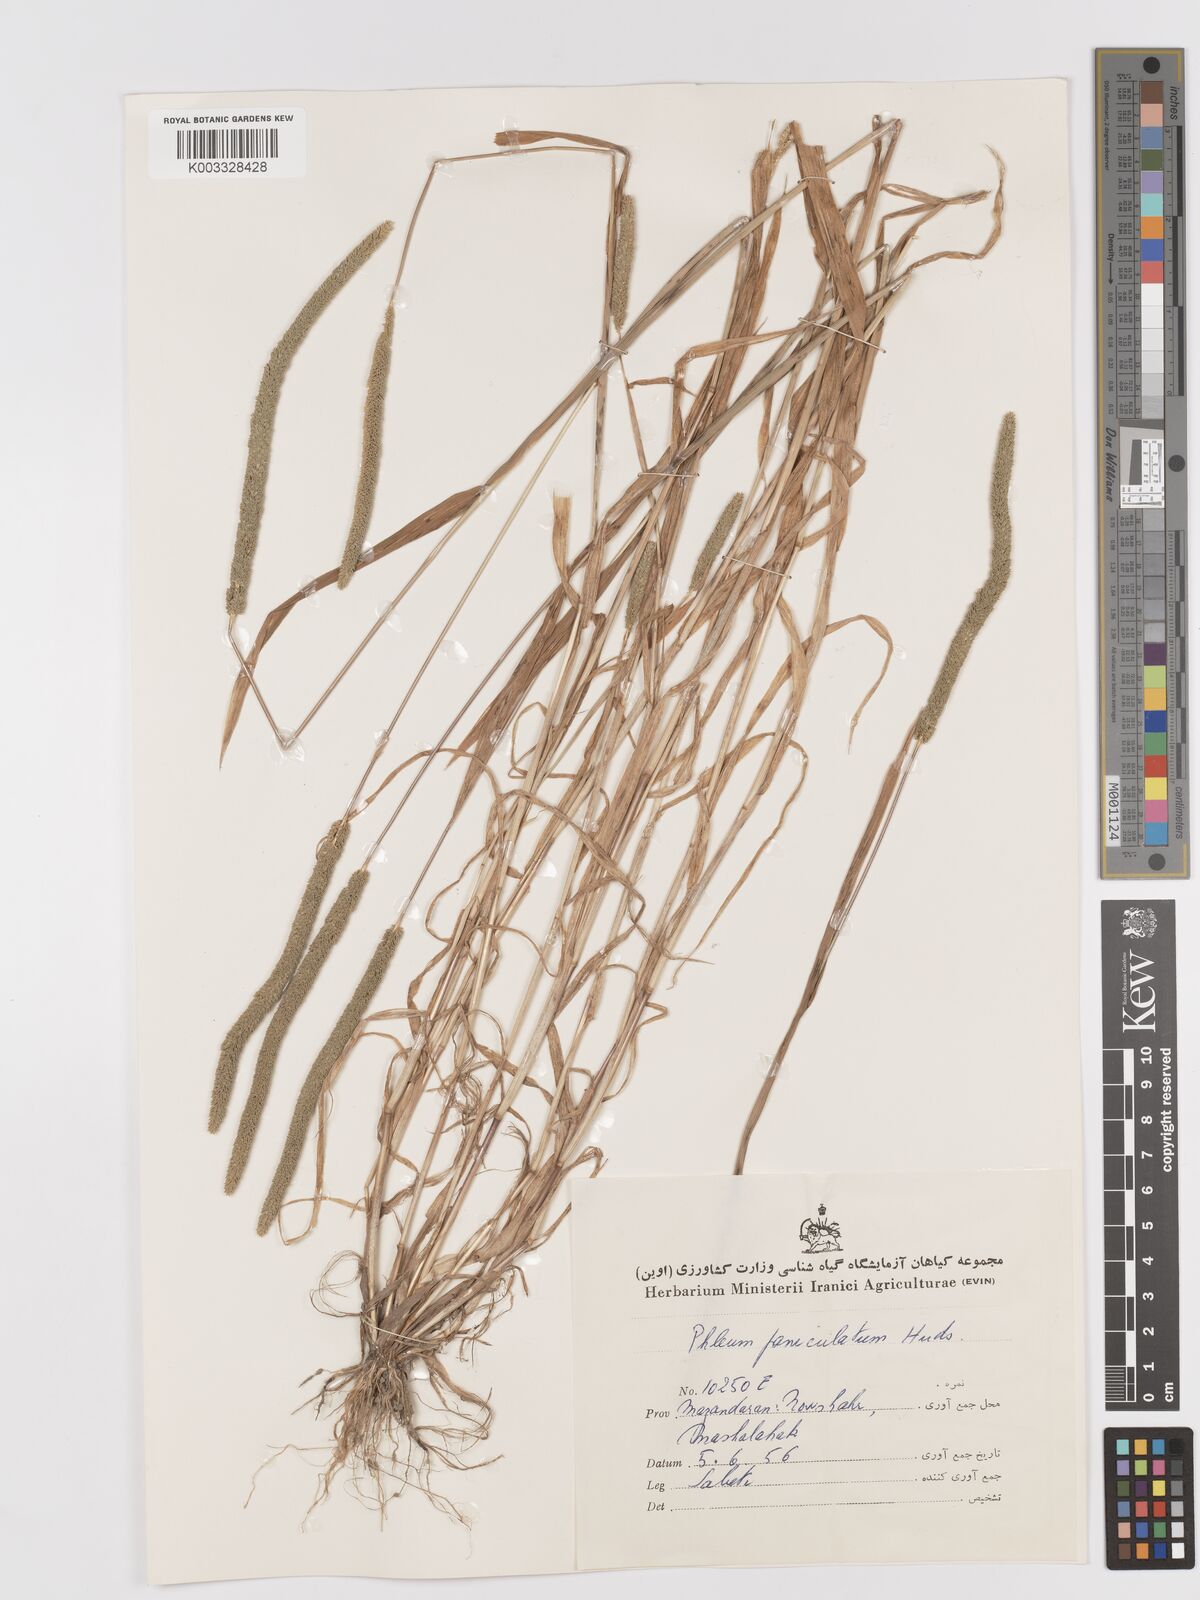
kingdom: Plantae
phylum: Tracheophyta
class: Liliopsida
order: Poales
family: Poaceae
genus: Phleum
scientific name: Phleum paniculatum
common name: British timothy
